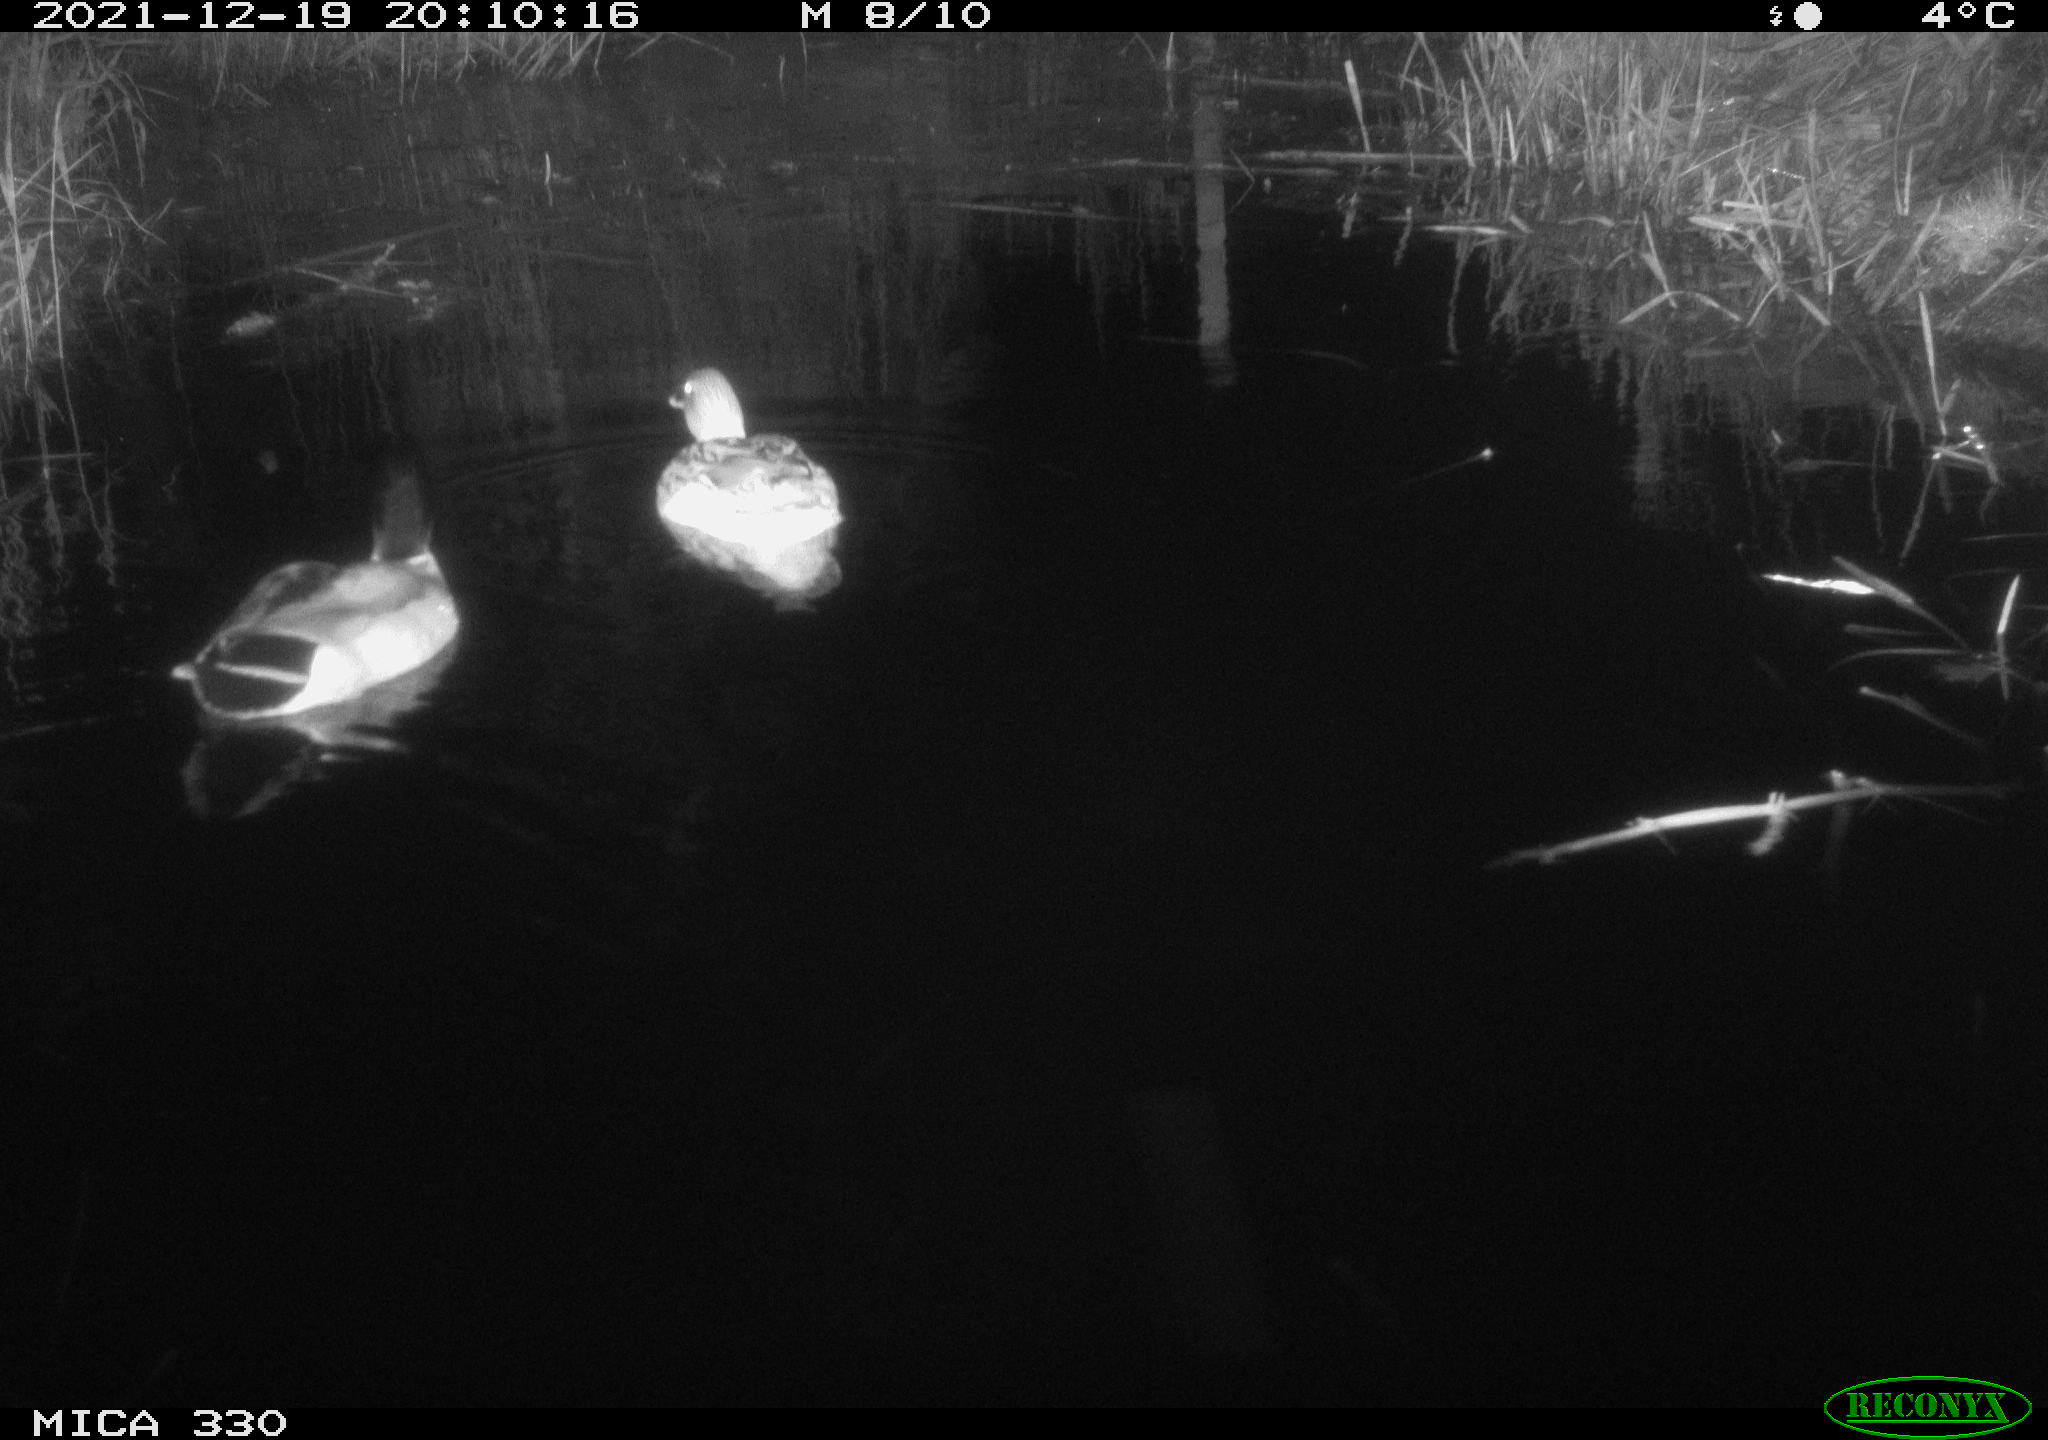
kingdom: Animalia
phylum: Chordata
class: Aves
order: Anseriformes
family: Anatidae
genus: Anas
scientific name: Anas platyrhynchos
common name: Mallard
